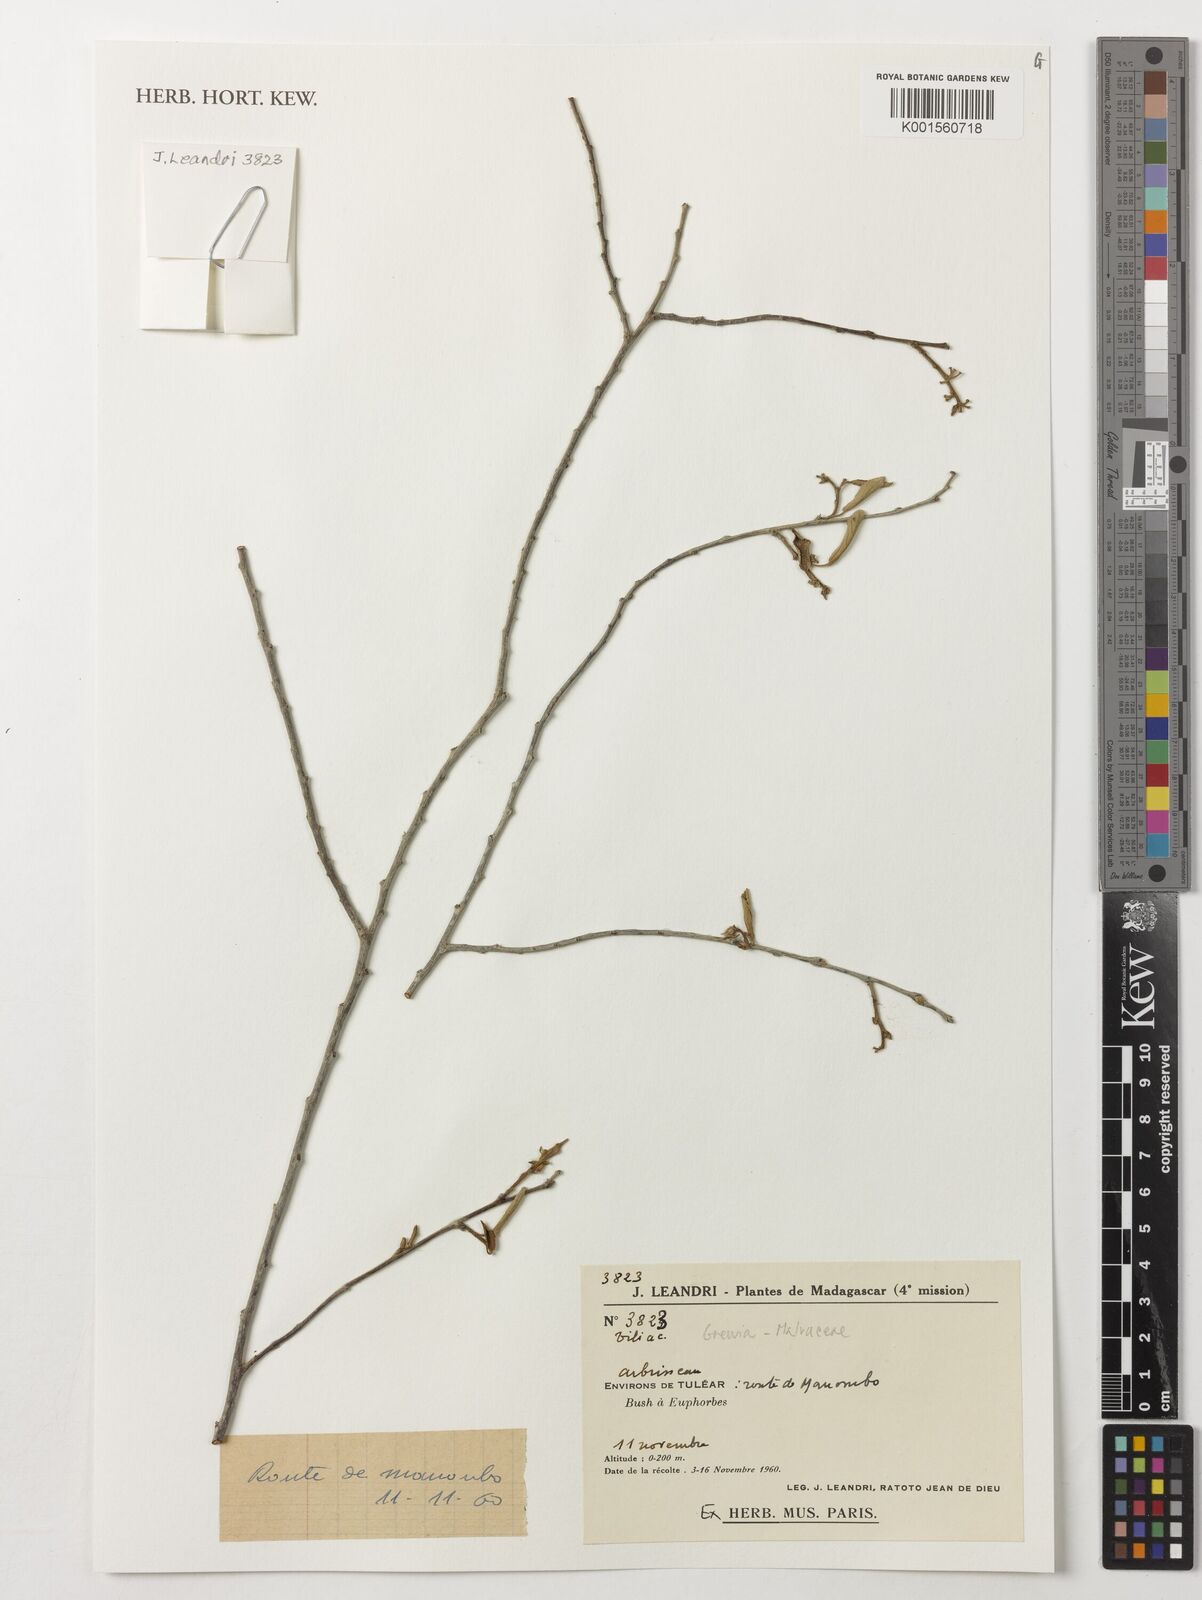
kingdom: Plantae
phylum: Tracheophyta
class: Magnoliopsida
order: Malvales
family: Malvaceae
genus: Grewia
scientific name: Grewia
